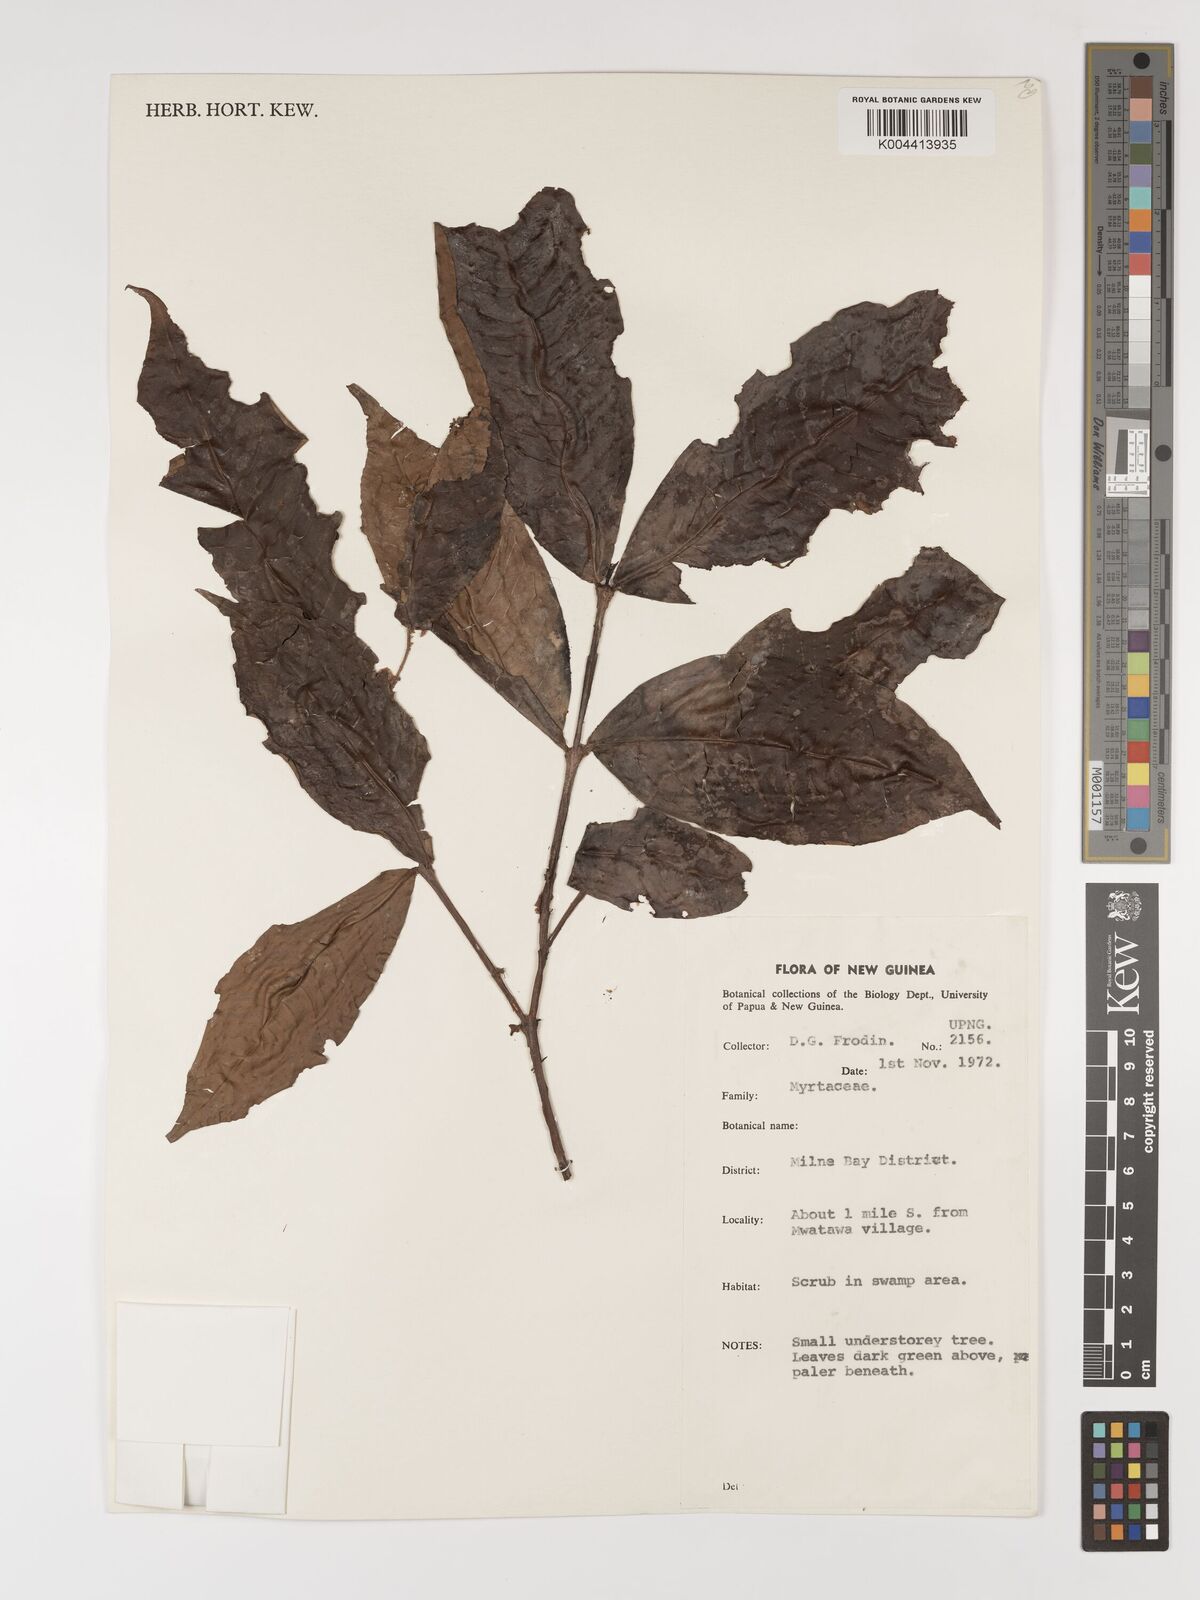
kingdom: Plantae
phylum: Tracheophyta
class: Magnoliopsida
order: Myrtales
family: Myrtaceae
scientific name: Myrtaceae
